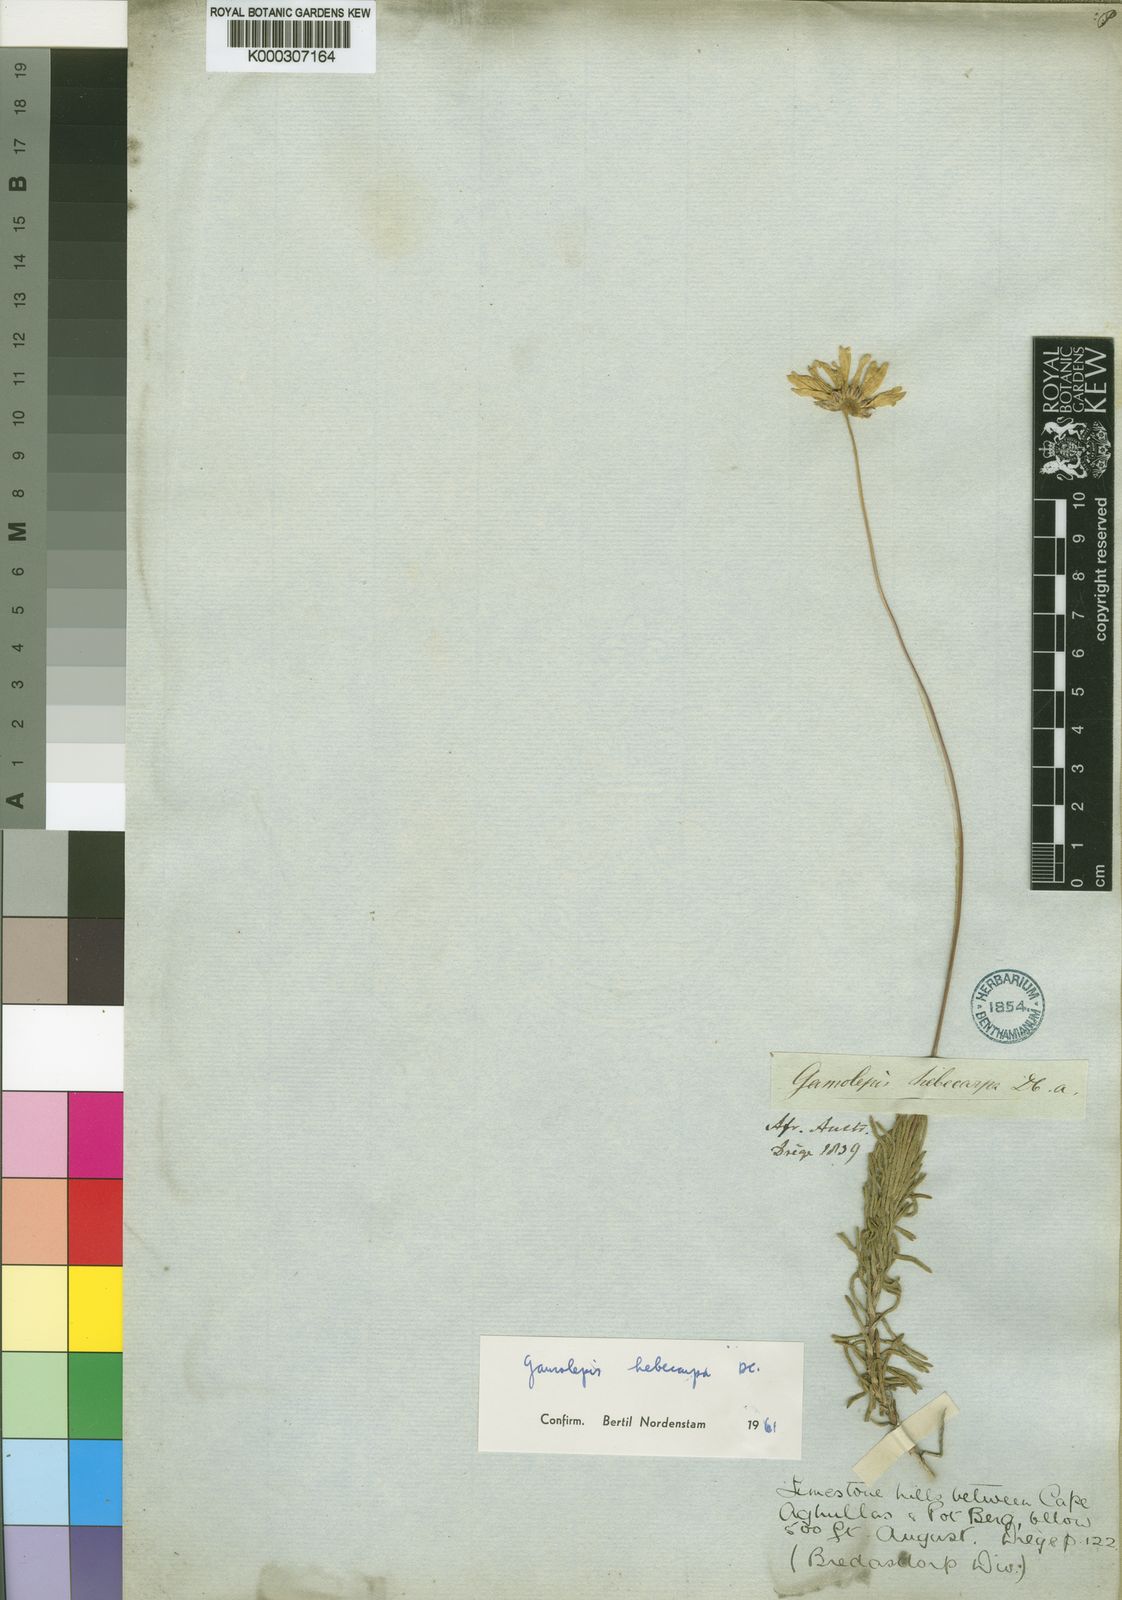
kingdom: Plantae
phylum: Tracheophyta
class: Magnoliopsida
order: Asterales
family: Asteraceae
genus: Euryops
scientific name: Euryops hebecarpus
